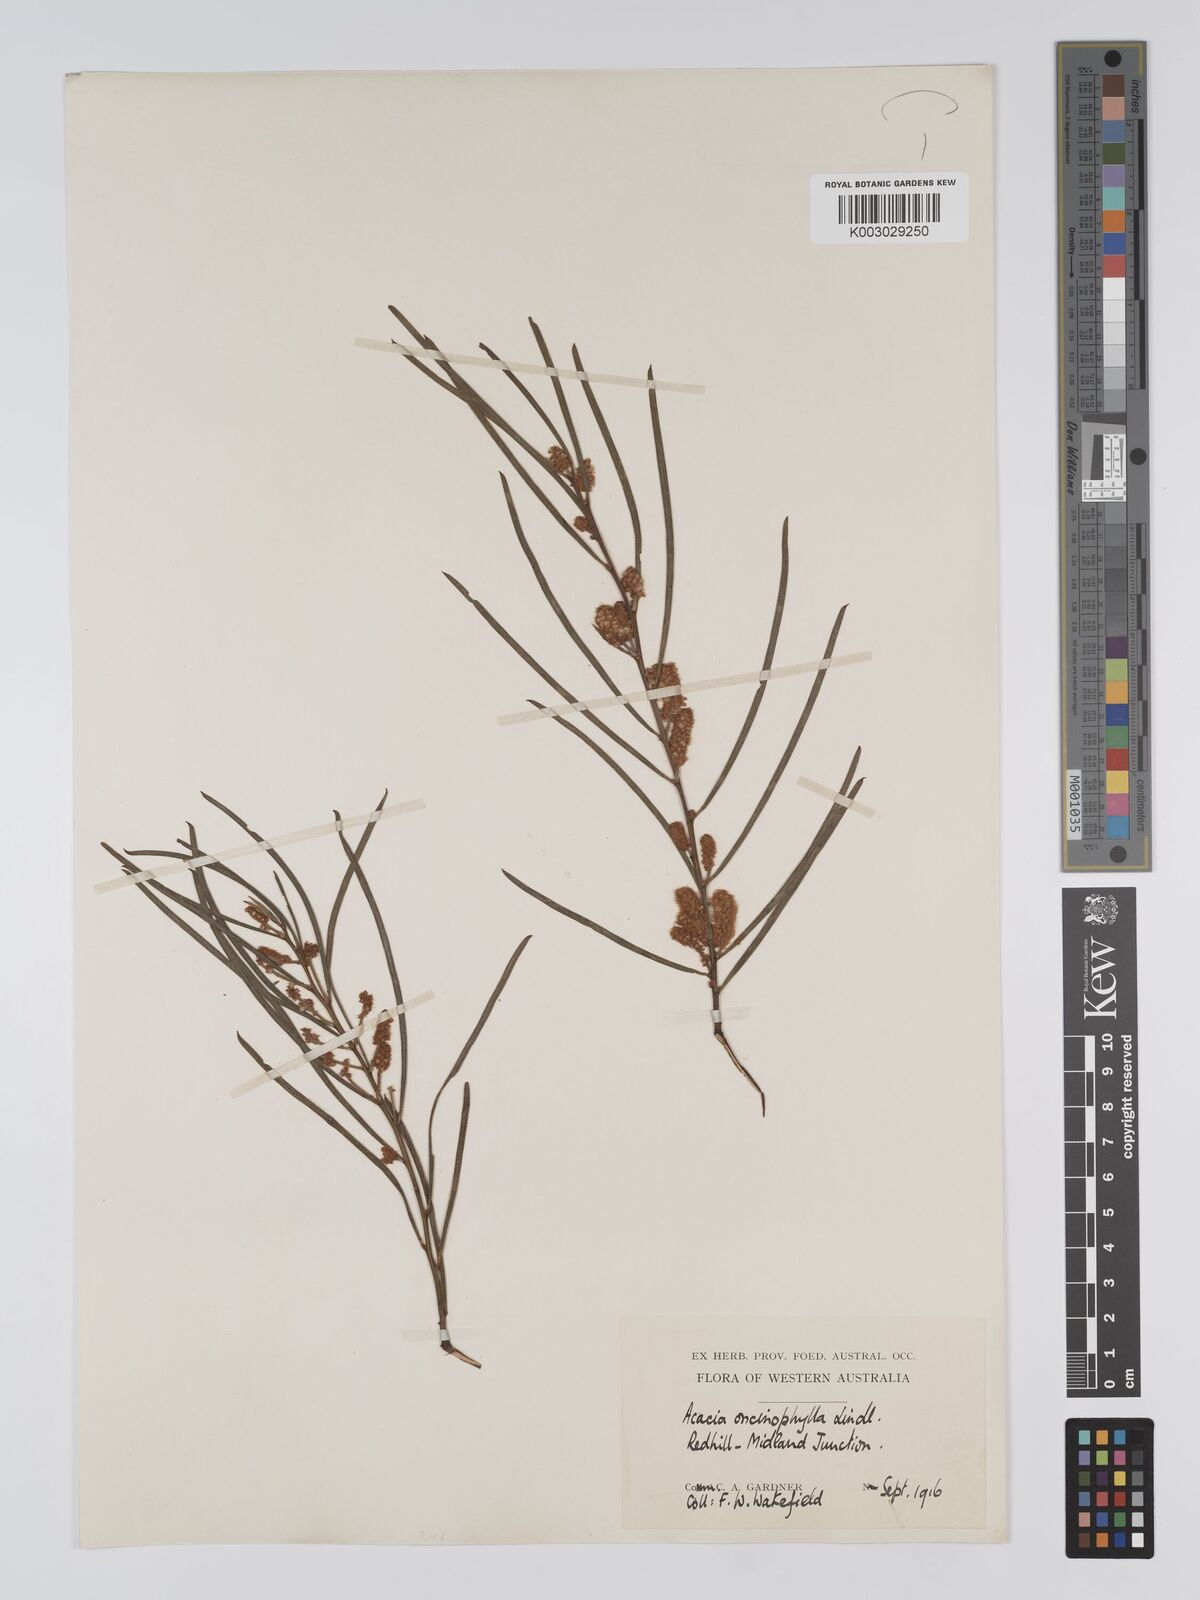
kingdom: Plantae
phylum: Tracheophyta
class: Magnoliopsida
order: Fabales
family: Fabaceae
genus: Acacia
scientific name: Acacia oncinophylla
